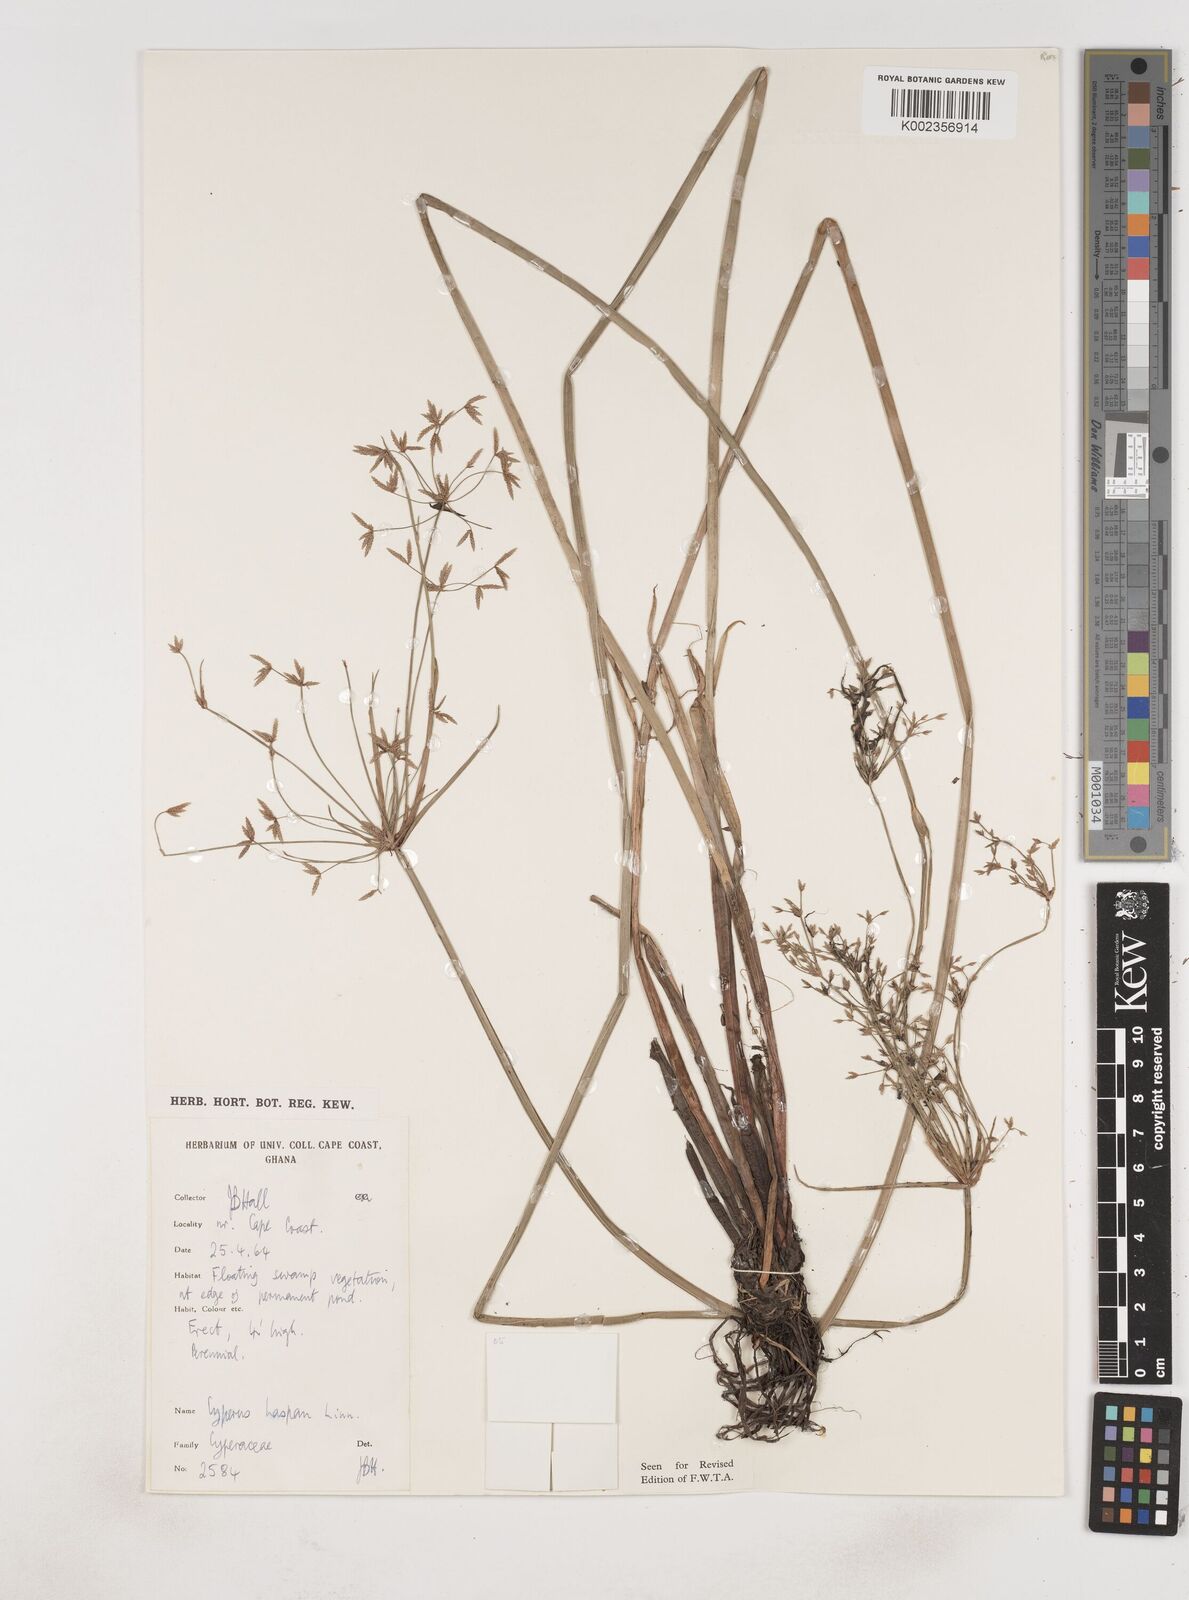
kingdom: Plantae
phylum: Tracheophyta
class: Liliopsida
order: Poales
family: Cyperaceae
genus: Cyperus
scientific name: Cyperus haspan
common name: Haspan flatsedge
